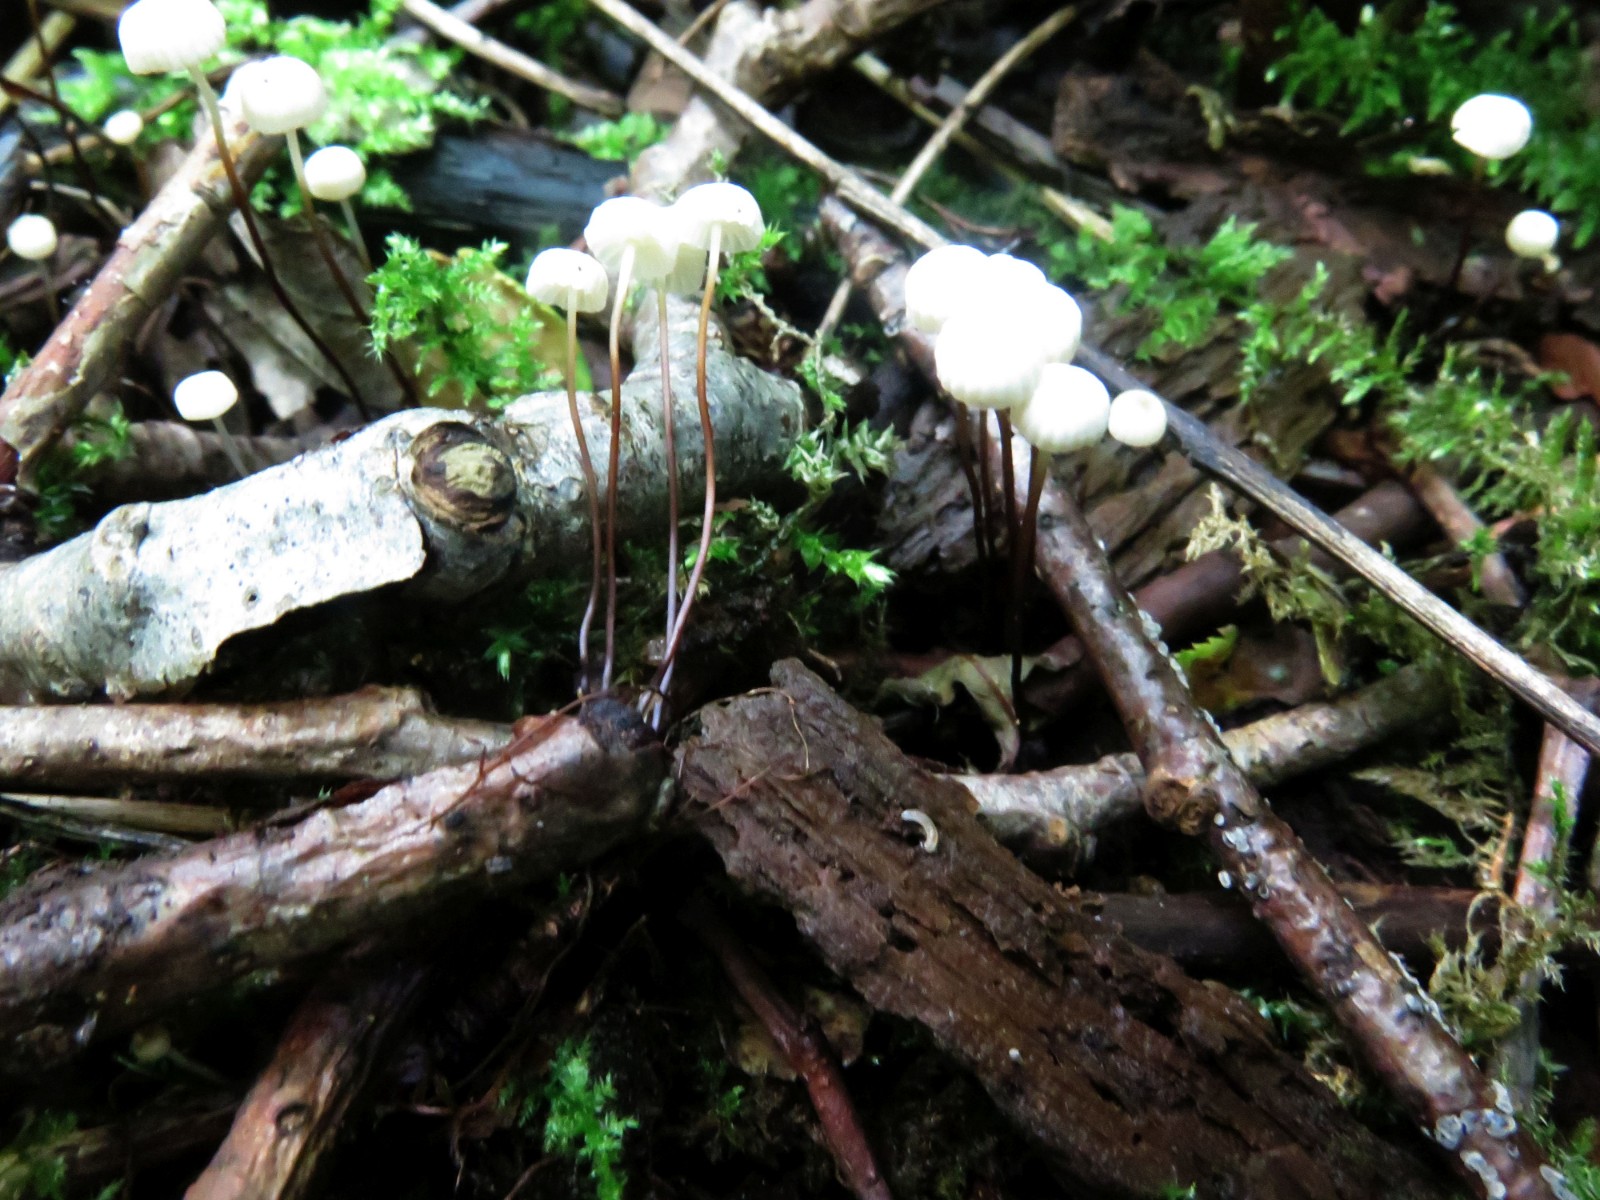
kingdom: Fungi
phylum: Basidiomycota
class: Agaricomycetes
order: Agaricales
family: Marasmiaceae
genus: Marasmius
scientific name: Marasmius rotula
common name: hjul-bruskhat
